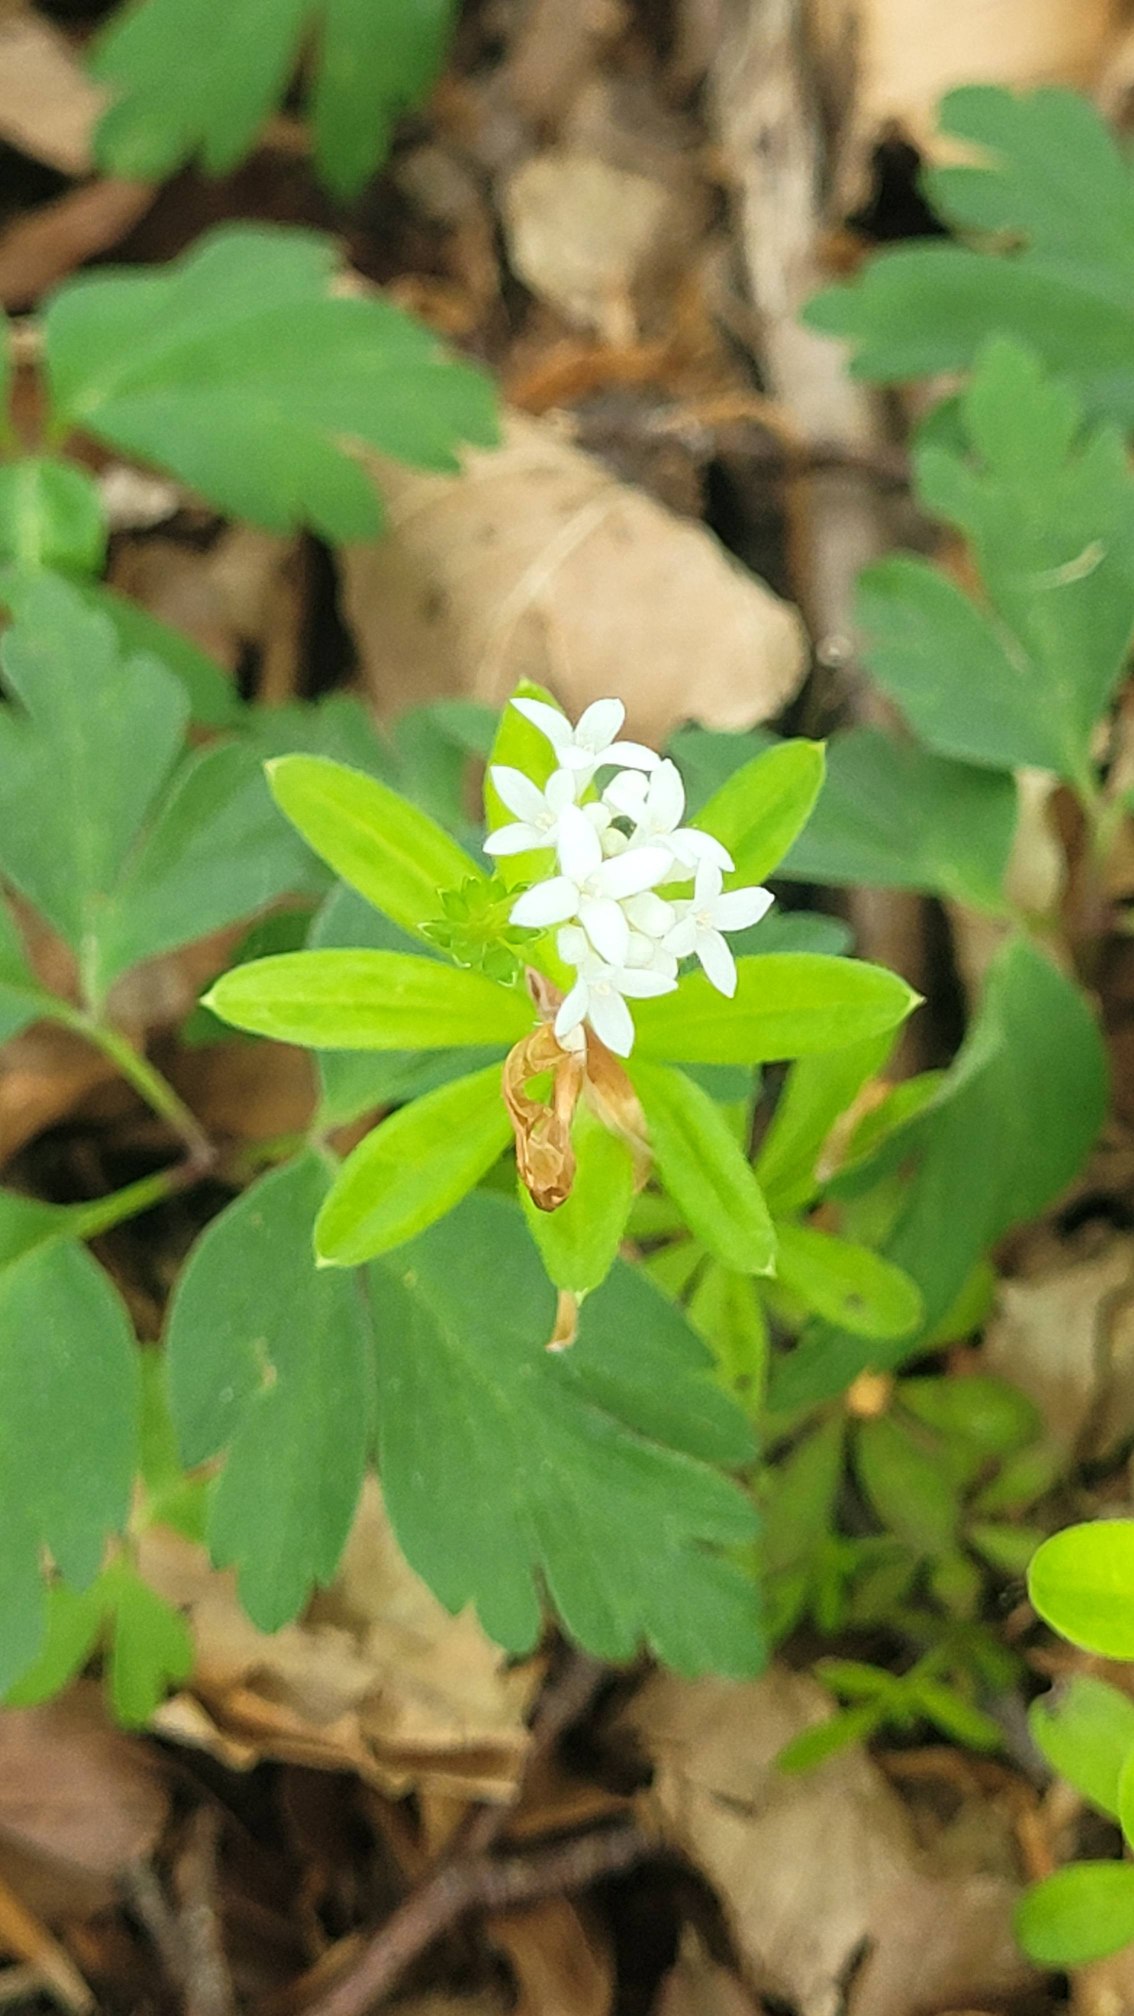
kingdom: Plantae
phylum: Tracheophyta
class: Magnoliopsida
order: Gentianales
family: Rubiaceae
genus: Galium
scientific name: Galium odoratum
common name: Skovmærke
